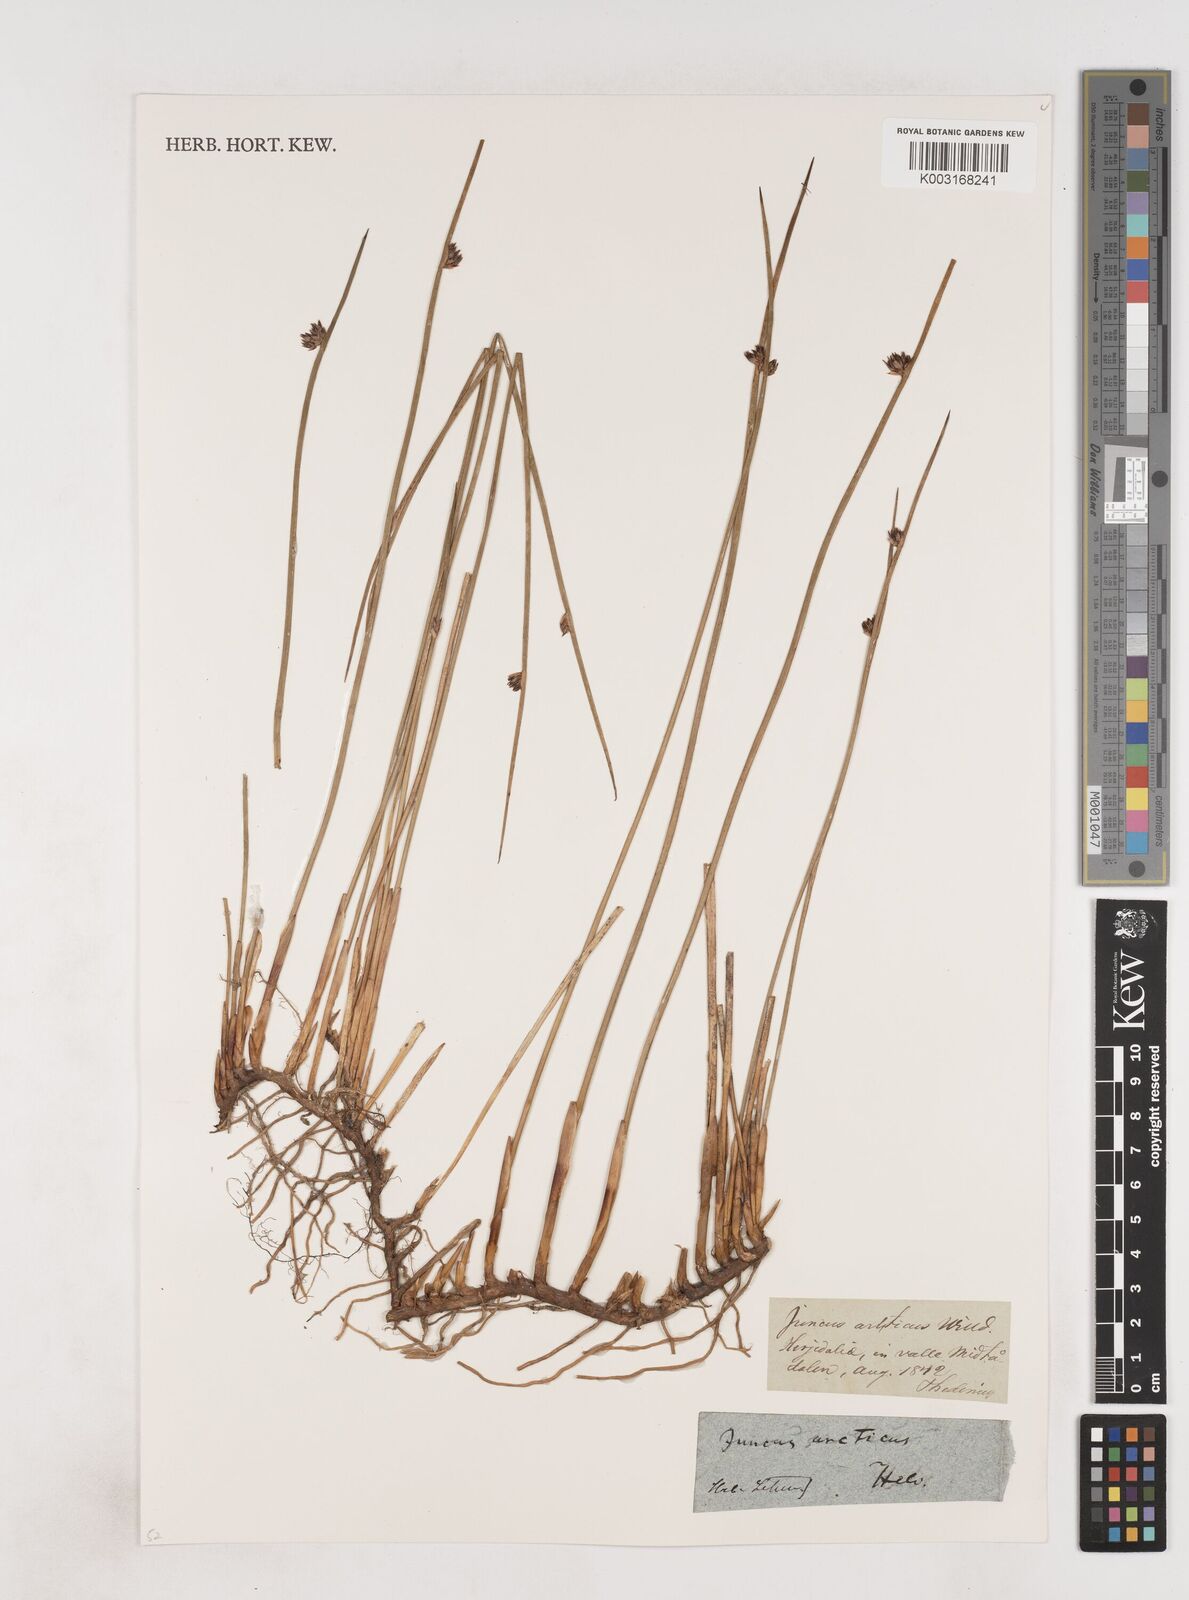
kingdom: Plantae
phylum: Tracheophyta
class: Liliopsida
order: Poales
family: Juncaceae
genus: Juncus
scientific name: Juncus arcticus
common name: Arctic rush
